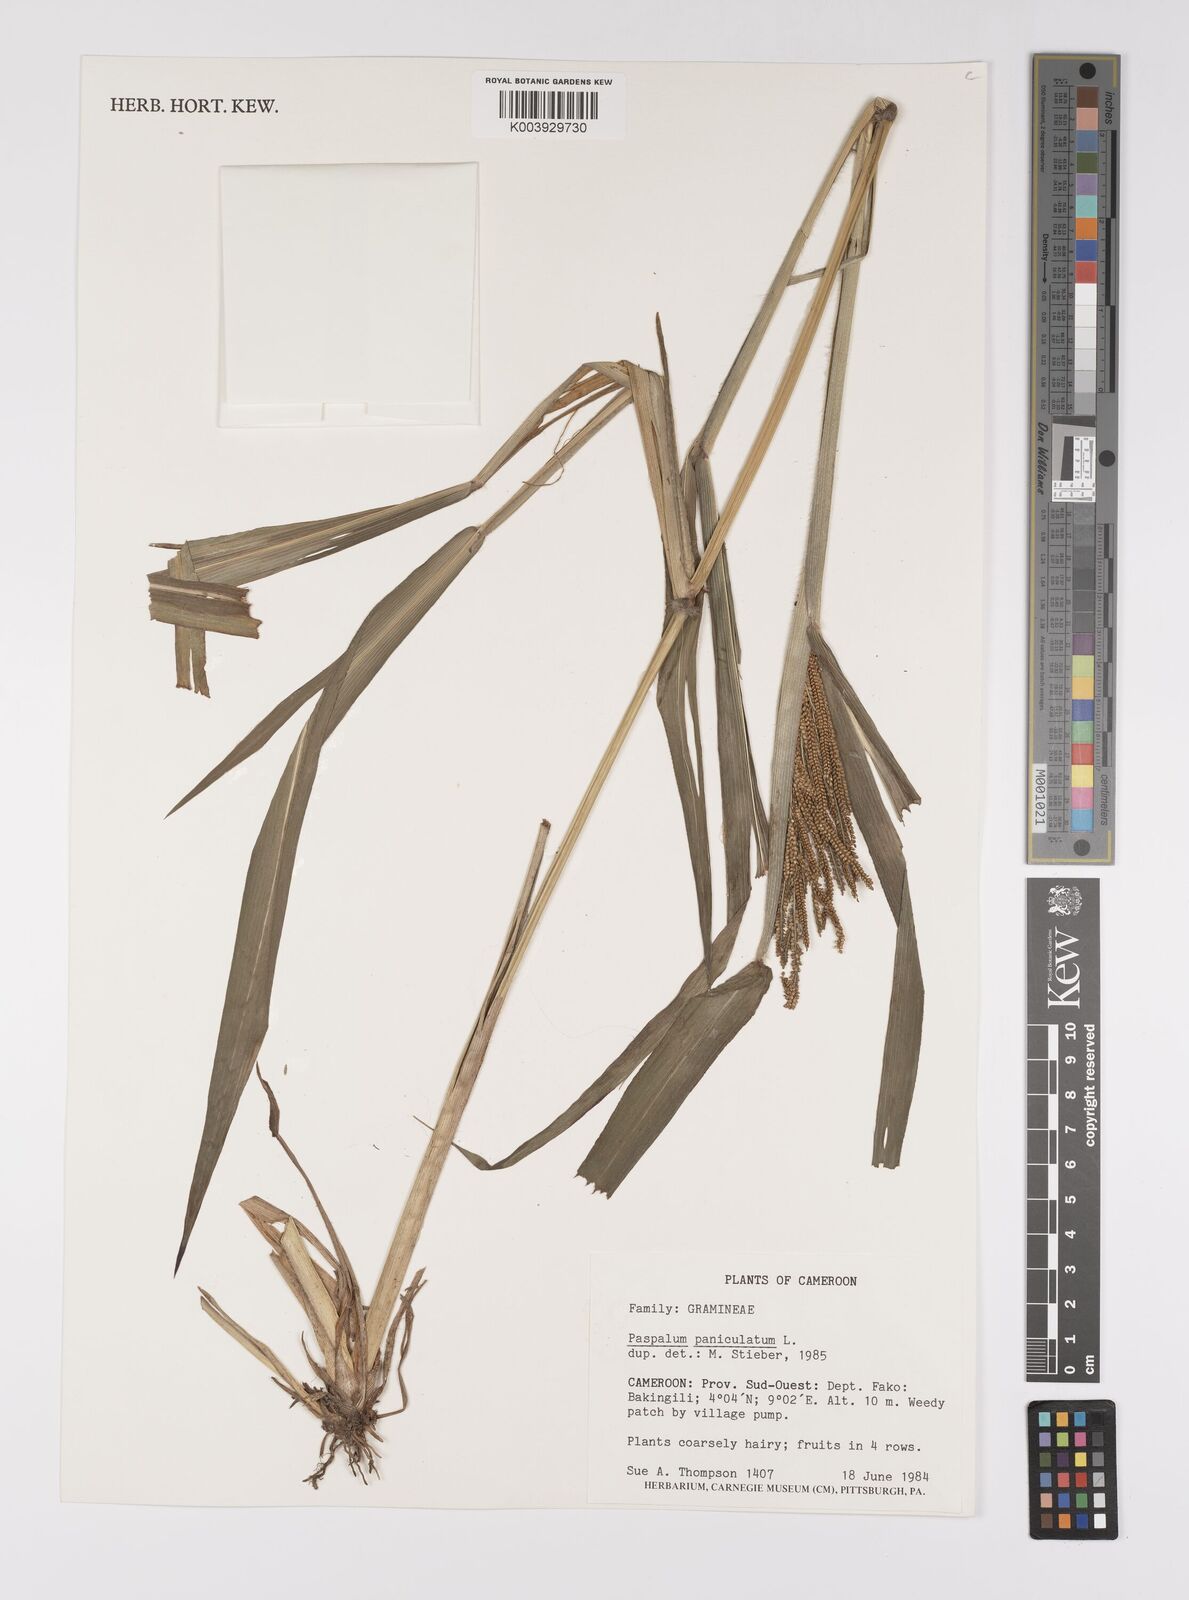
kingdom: Plantae
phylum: Tracheophyta
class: Liliopsida
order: Poales
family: Poaceae
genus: Paspalum
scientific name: Paspalum paniculatum
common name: Arrocillo
